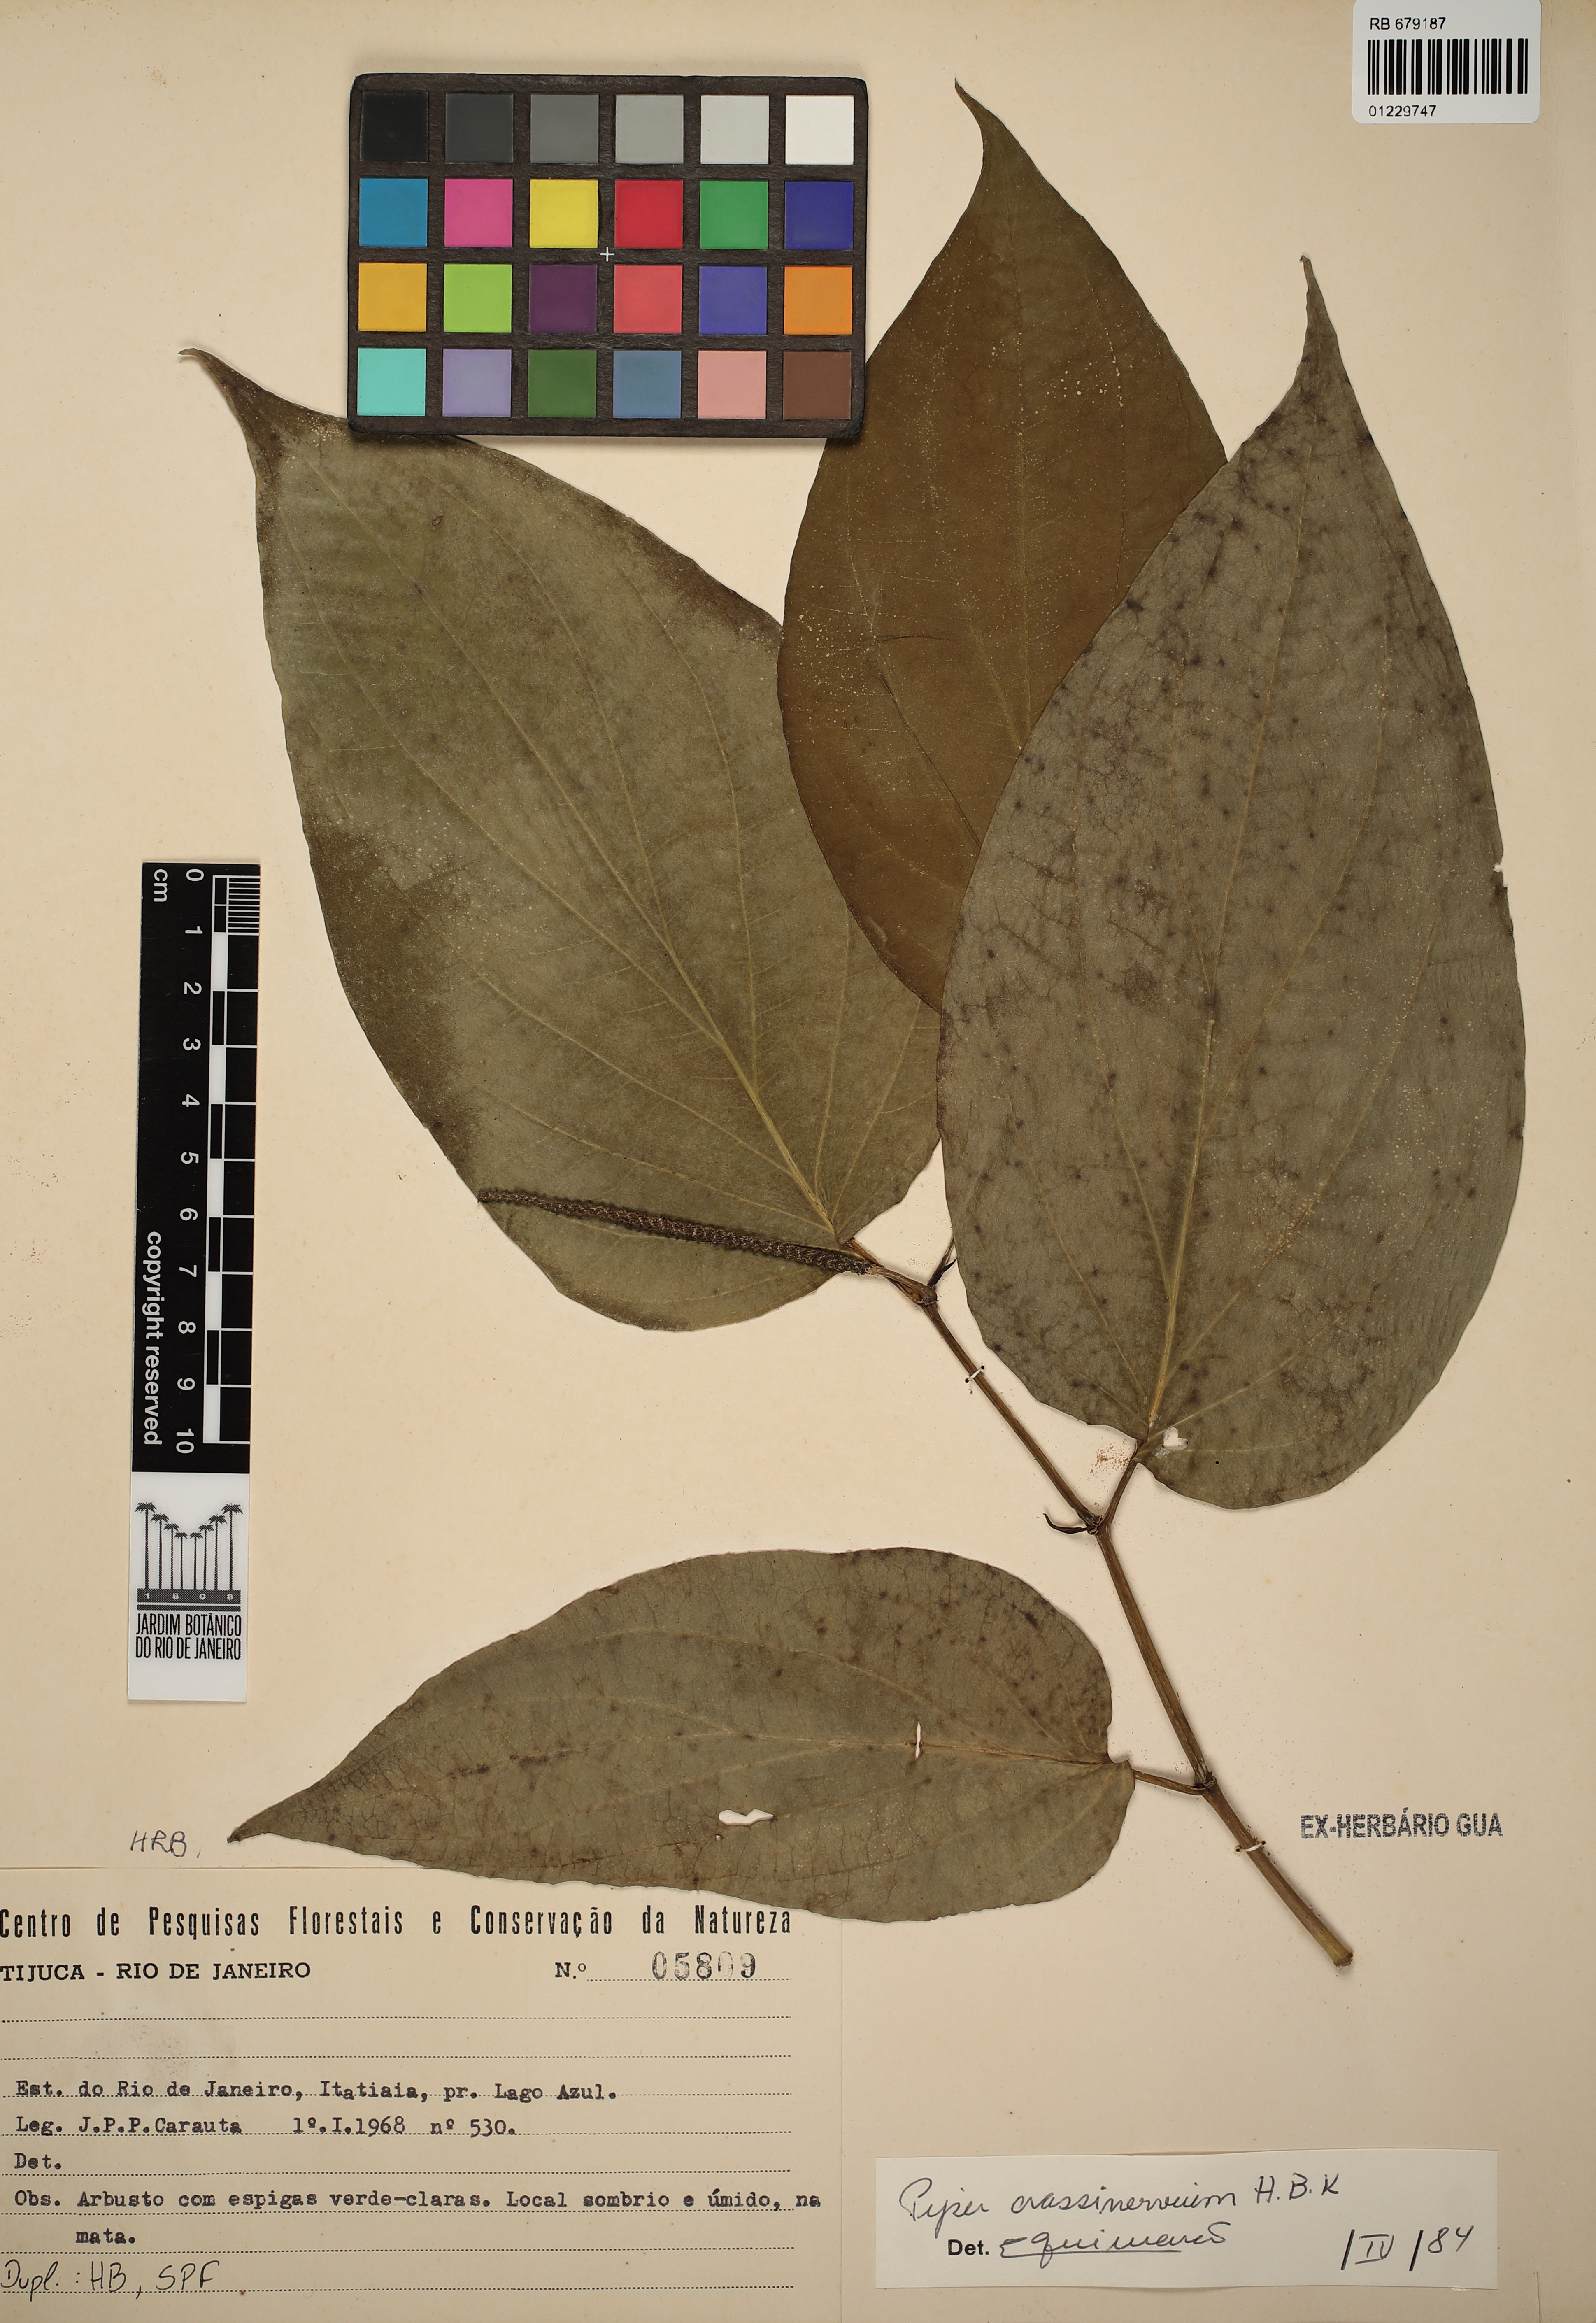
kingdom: Plantae
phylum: Tracheophyta
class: Magnoliopsida
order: Piperales
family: Piperaceae
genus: Piper
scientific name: Piper crassinervium
